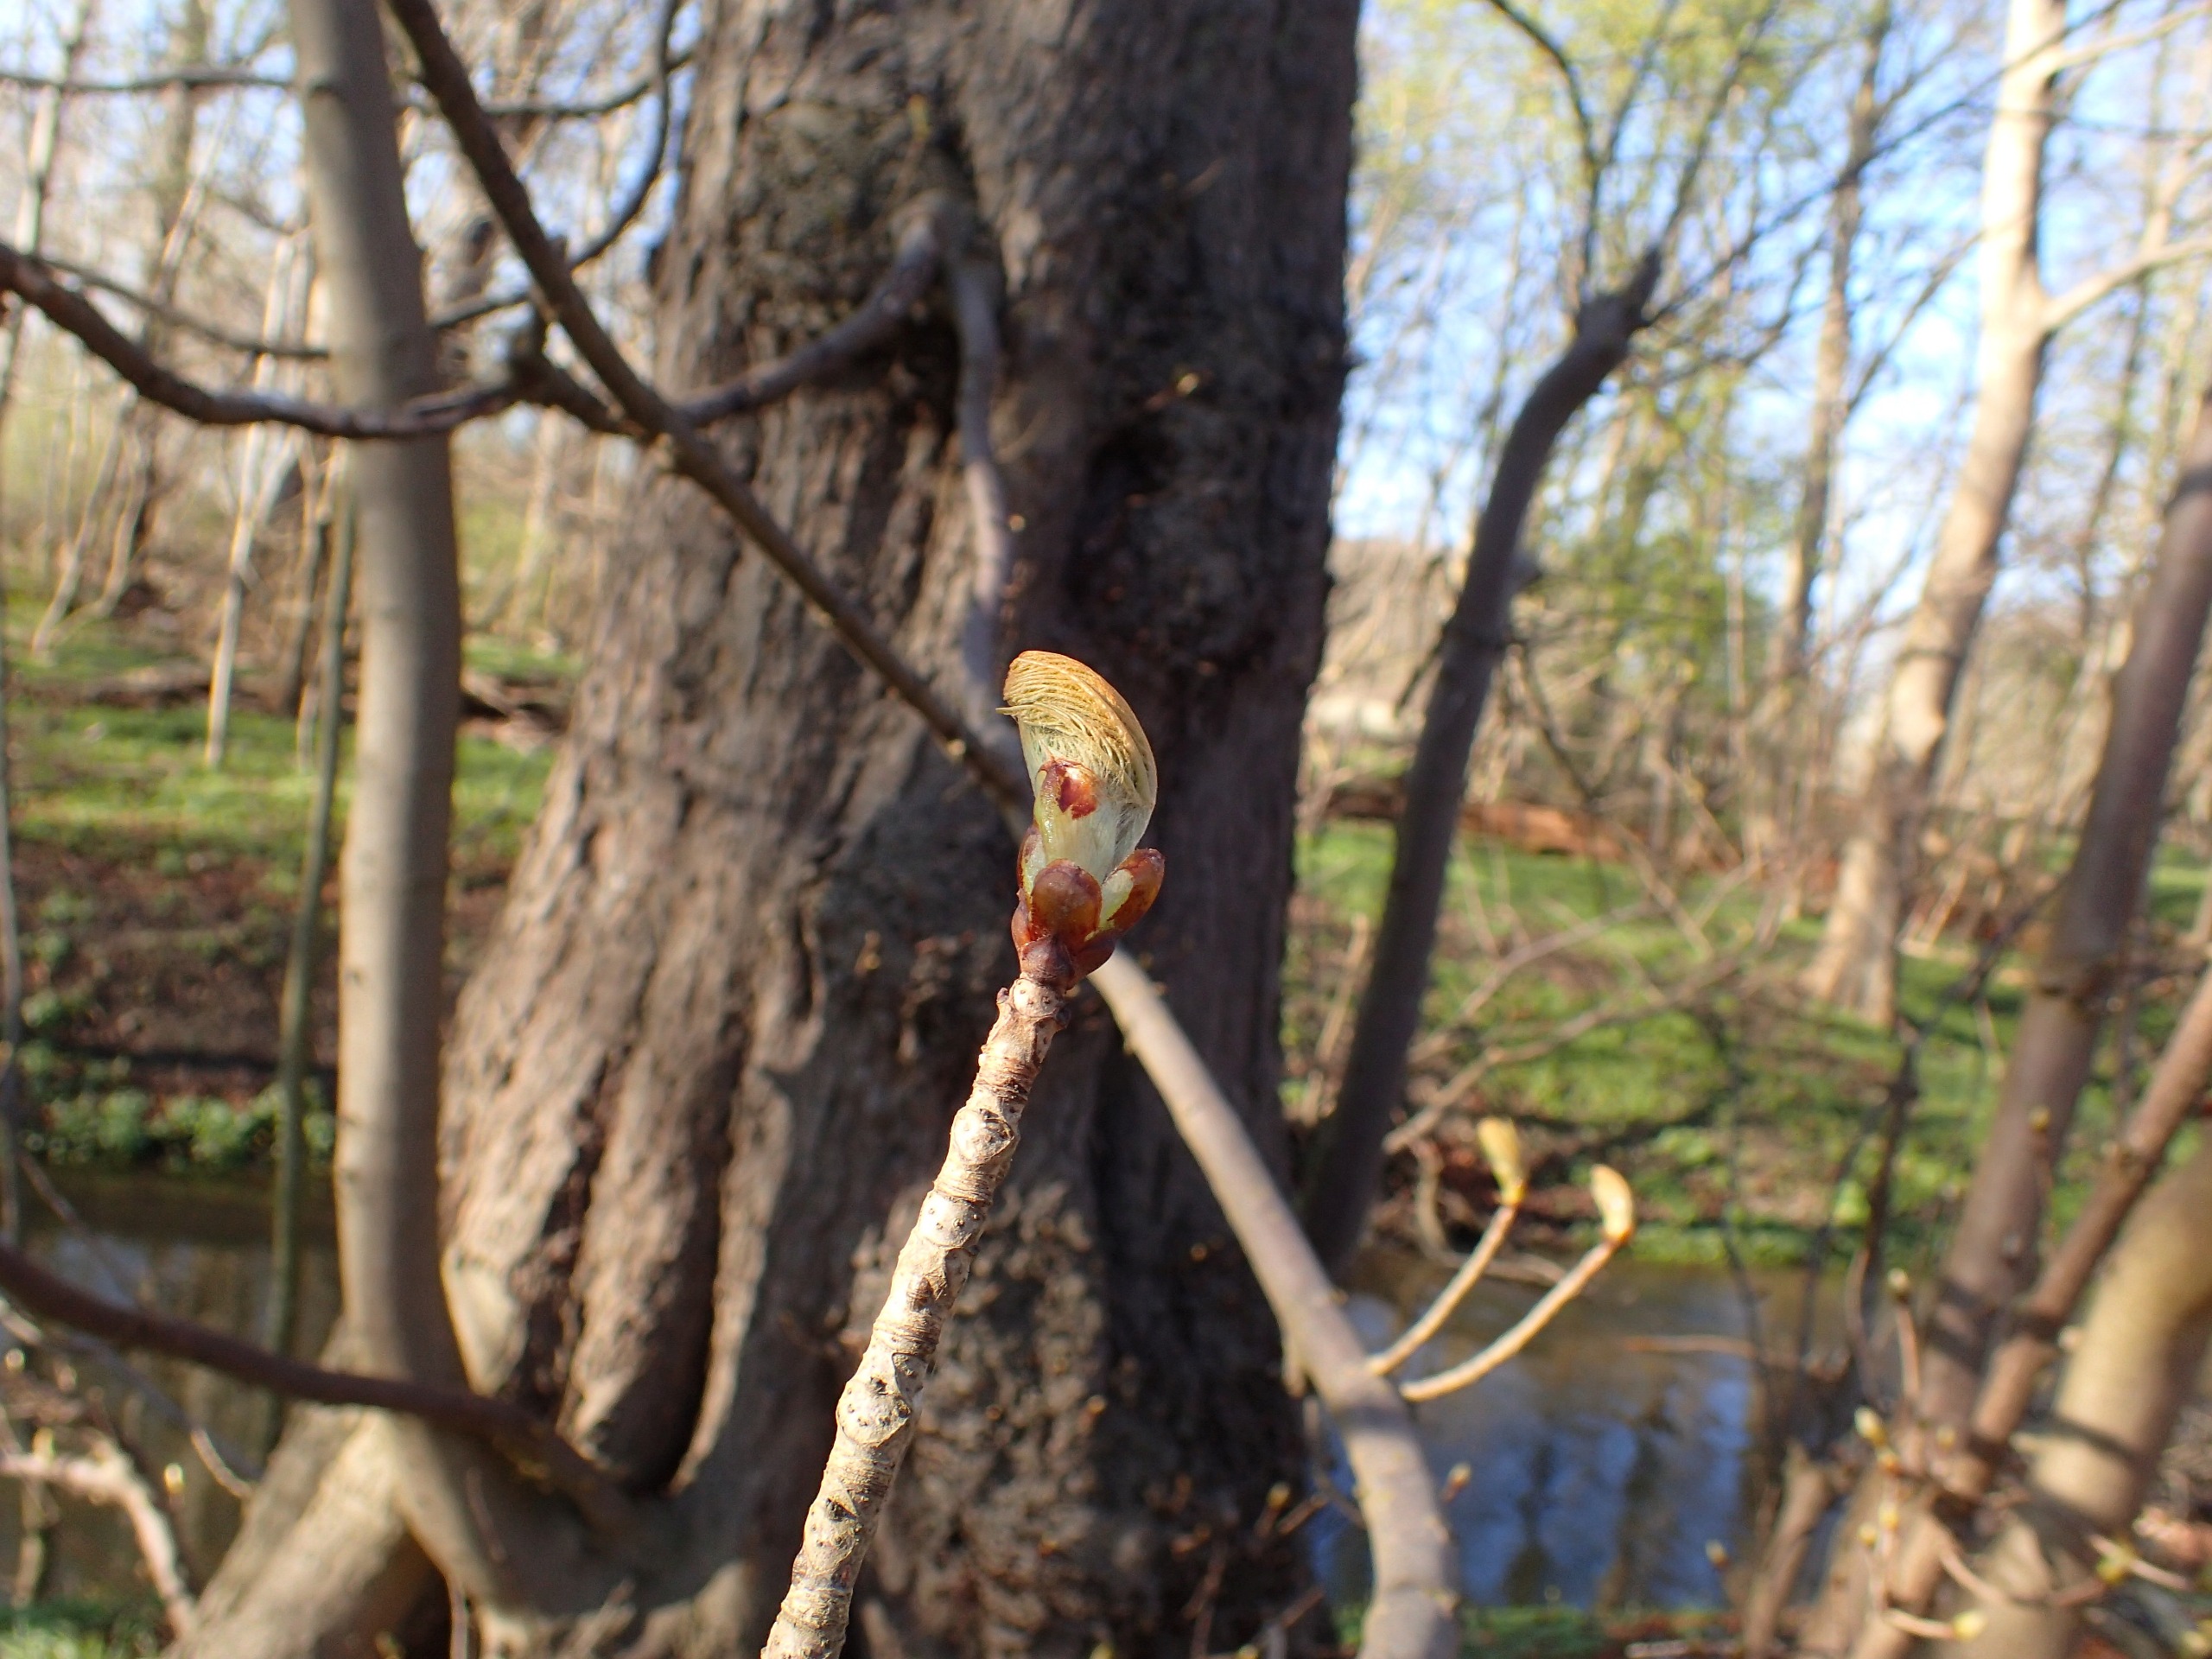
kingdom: Plantae
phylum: Tracheophyta
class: Magnoliopsida
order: Sapindales
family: Sapindaceae
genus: Aesculus
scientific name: Aesculus hippocastanum
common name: Hestekastanie
